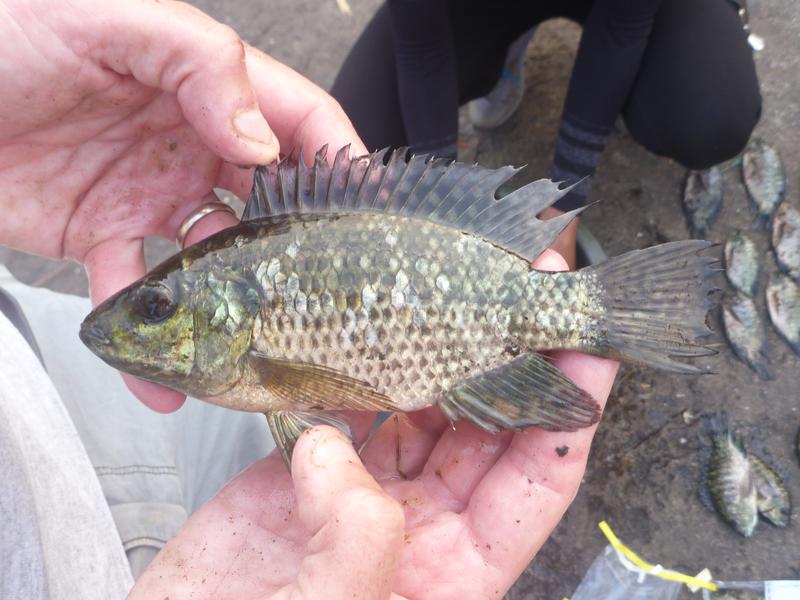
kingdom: Animalia
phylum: Chordata
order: Perciformes
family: Cichlidae
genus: Oreochromis
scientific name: Oreochromis leucostictus
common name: Blue spotted tilapia
